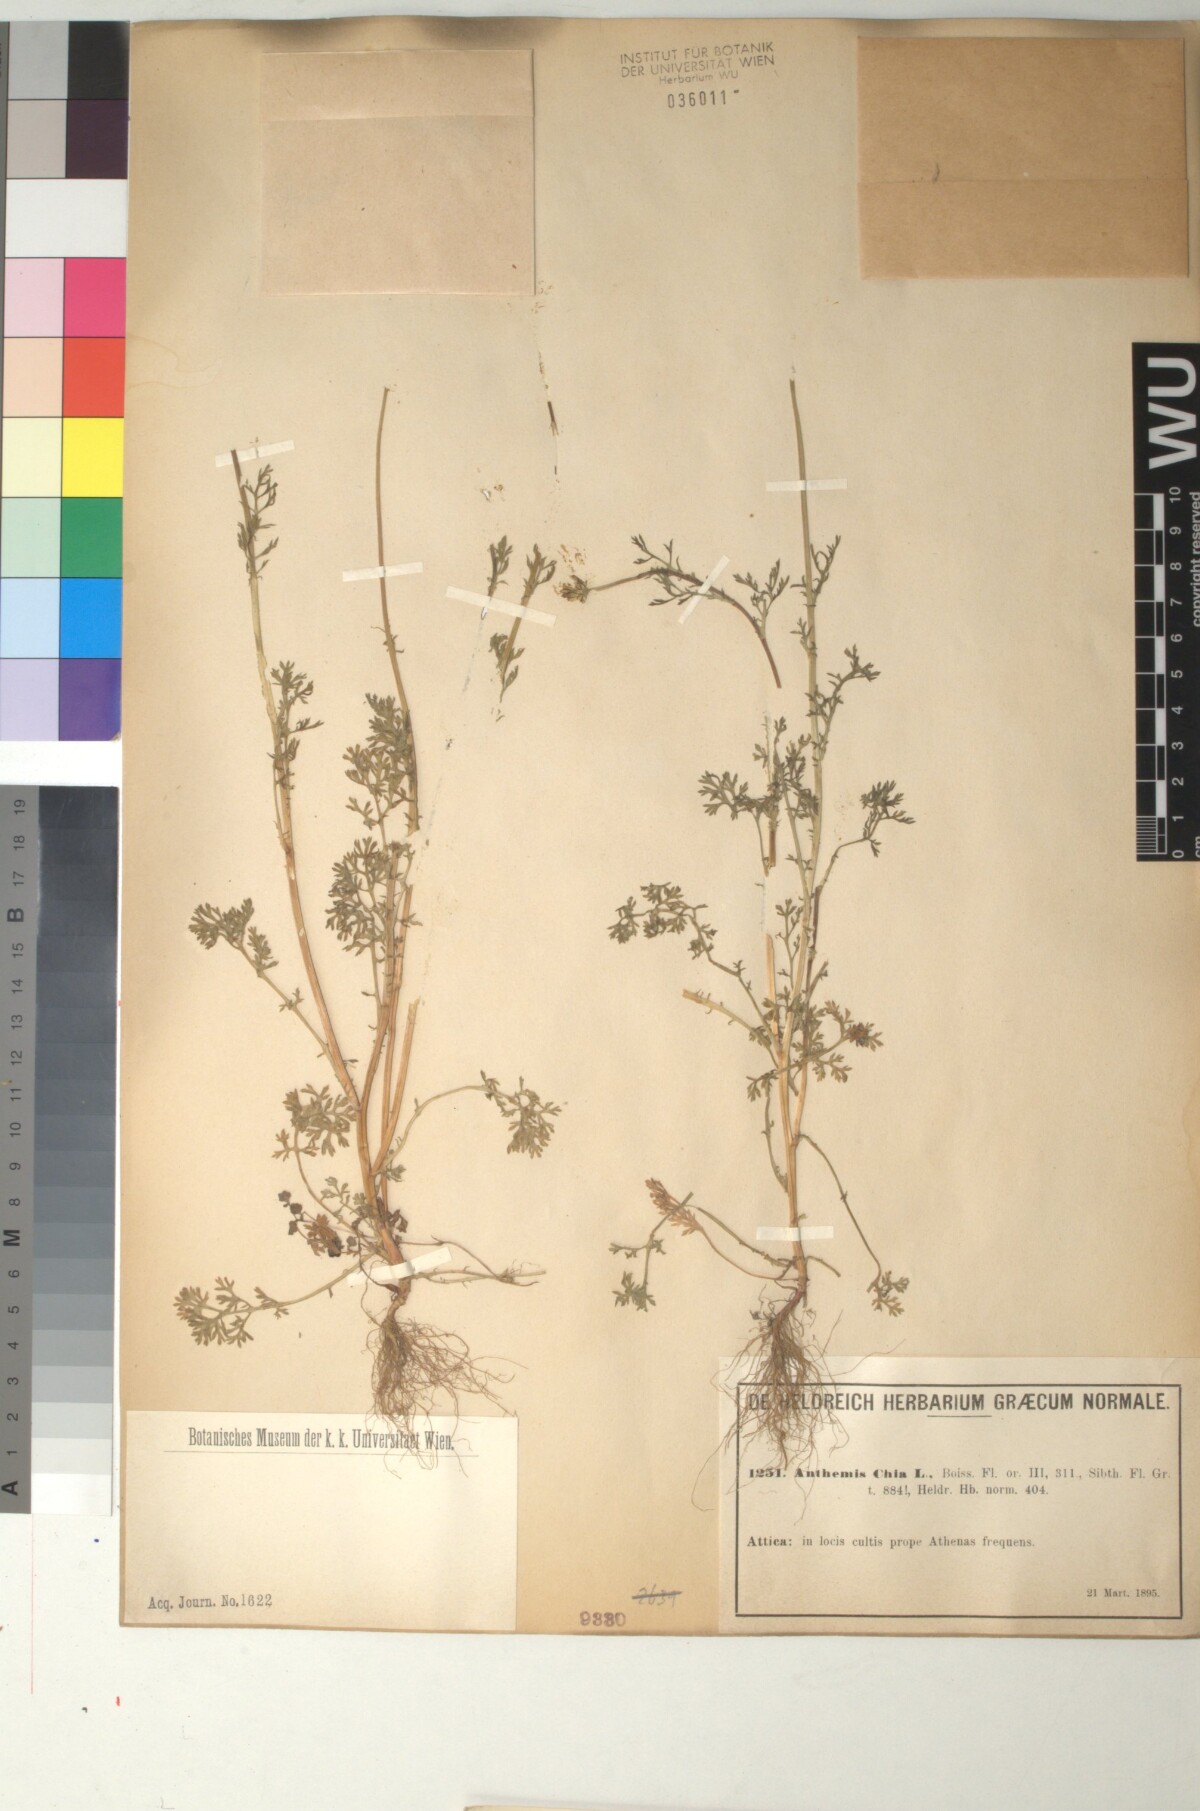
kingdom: Plantae
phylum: Tracheophyta
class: Magnoliopsida
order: Asterales
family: Asteraceae
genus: Anthemis
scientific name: Anthemis chia
